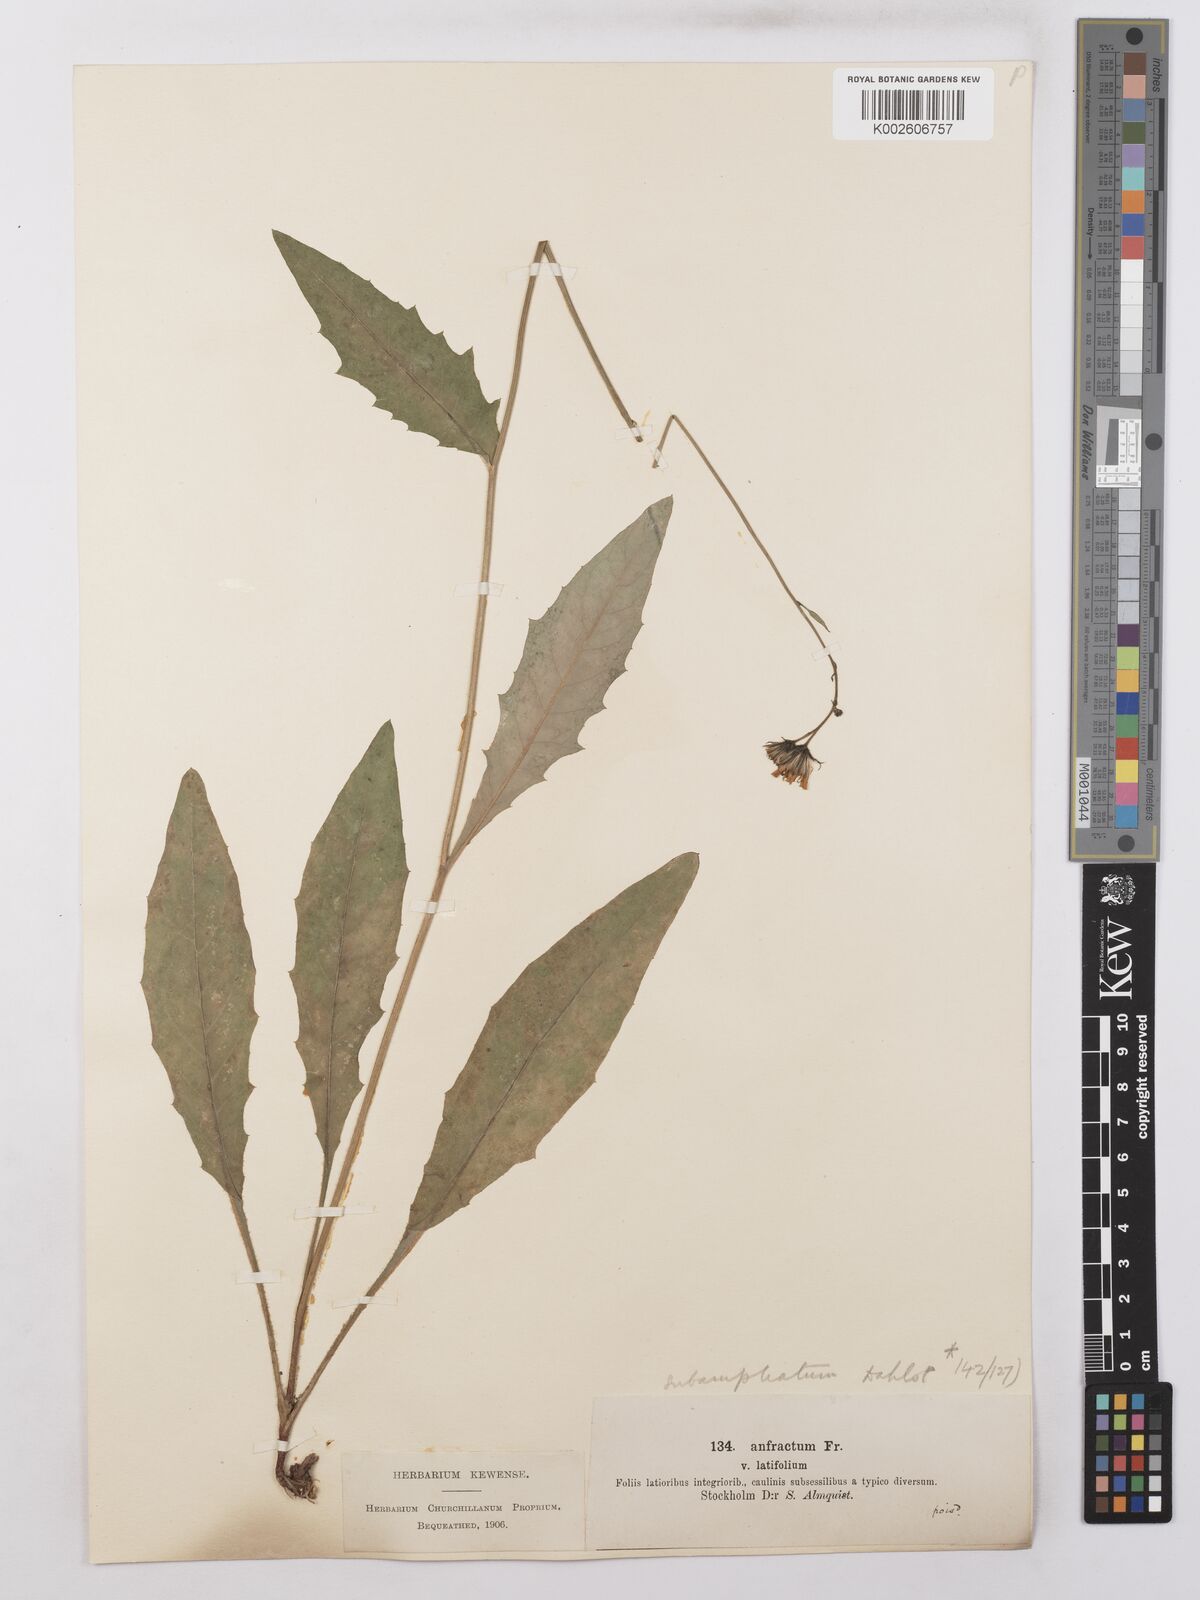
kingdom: Plantae
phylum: Tracheophyta
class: Magnoliopsida
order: Asterales
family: Asteraceae
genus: Hieracium
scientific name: Hieracium lachenalii
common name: Common hawkweed
